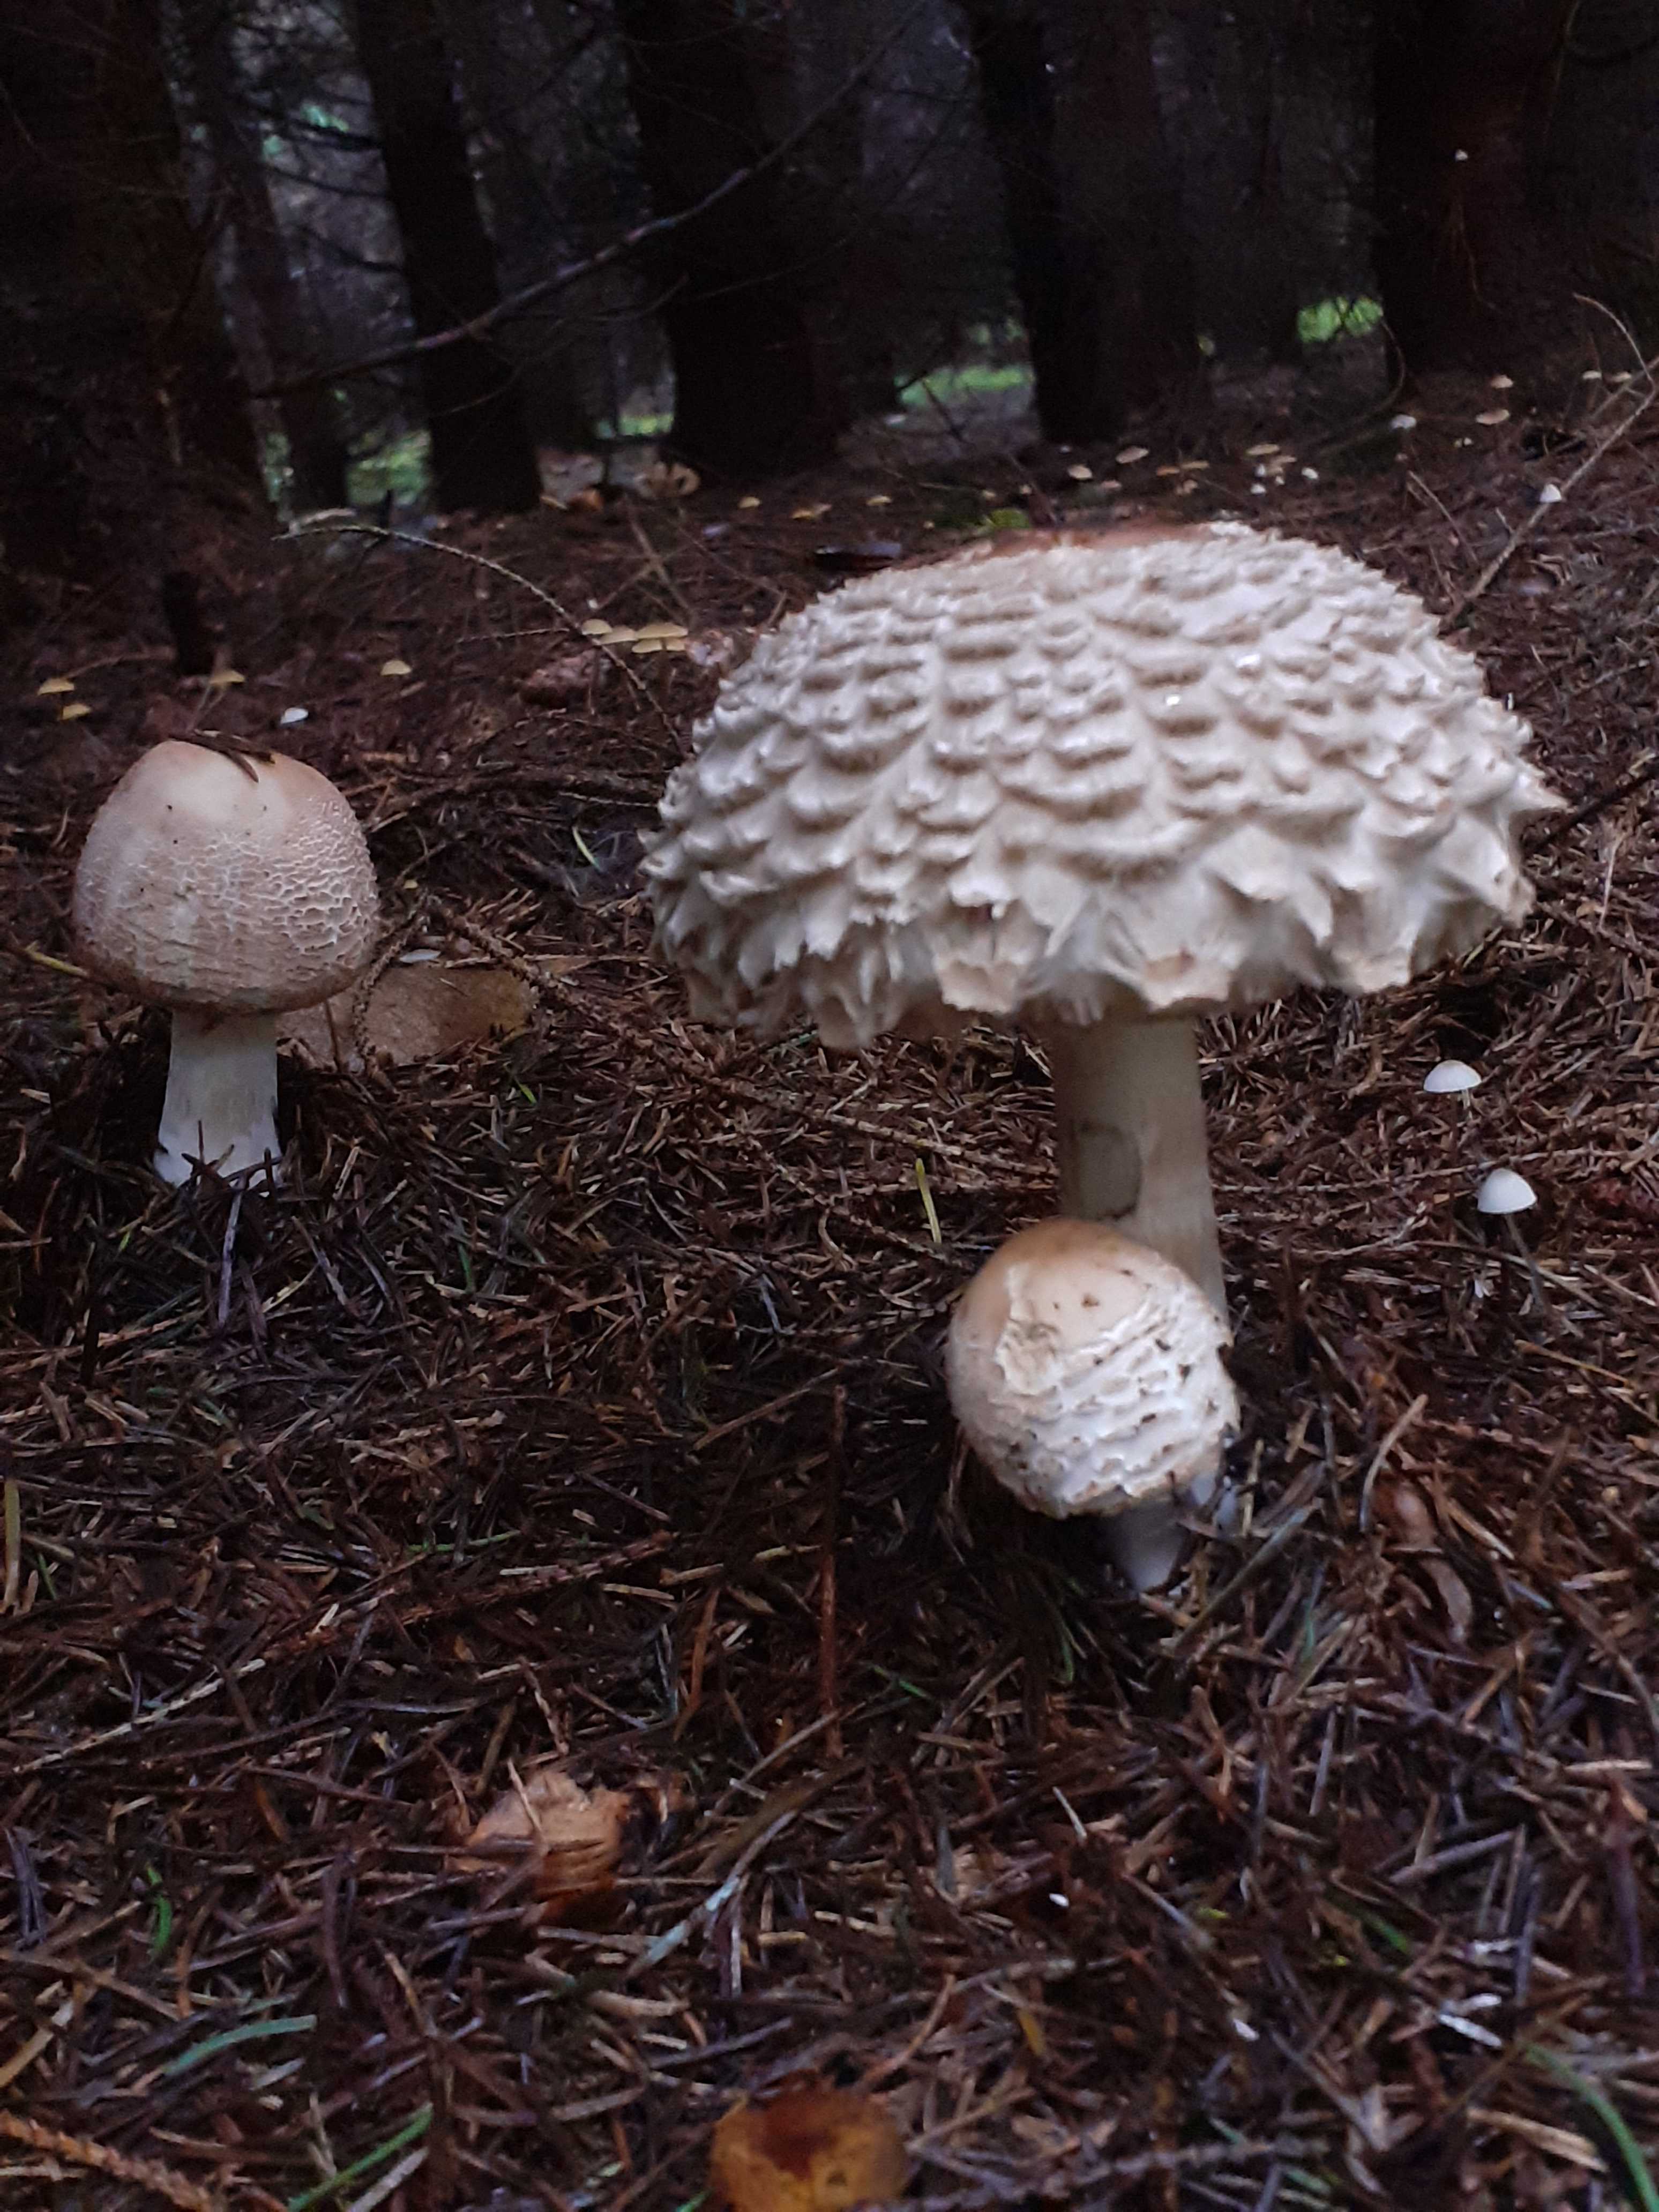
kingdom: Fungi
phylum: Basidiomycota
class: Agaricomycetes
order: Agaricales
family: Agaricaceae
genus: Chlorophyllum
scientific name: Chlorophyllum olivieri
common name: almindelig rabarberhat
